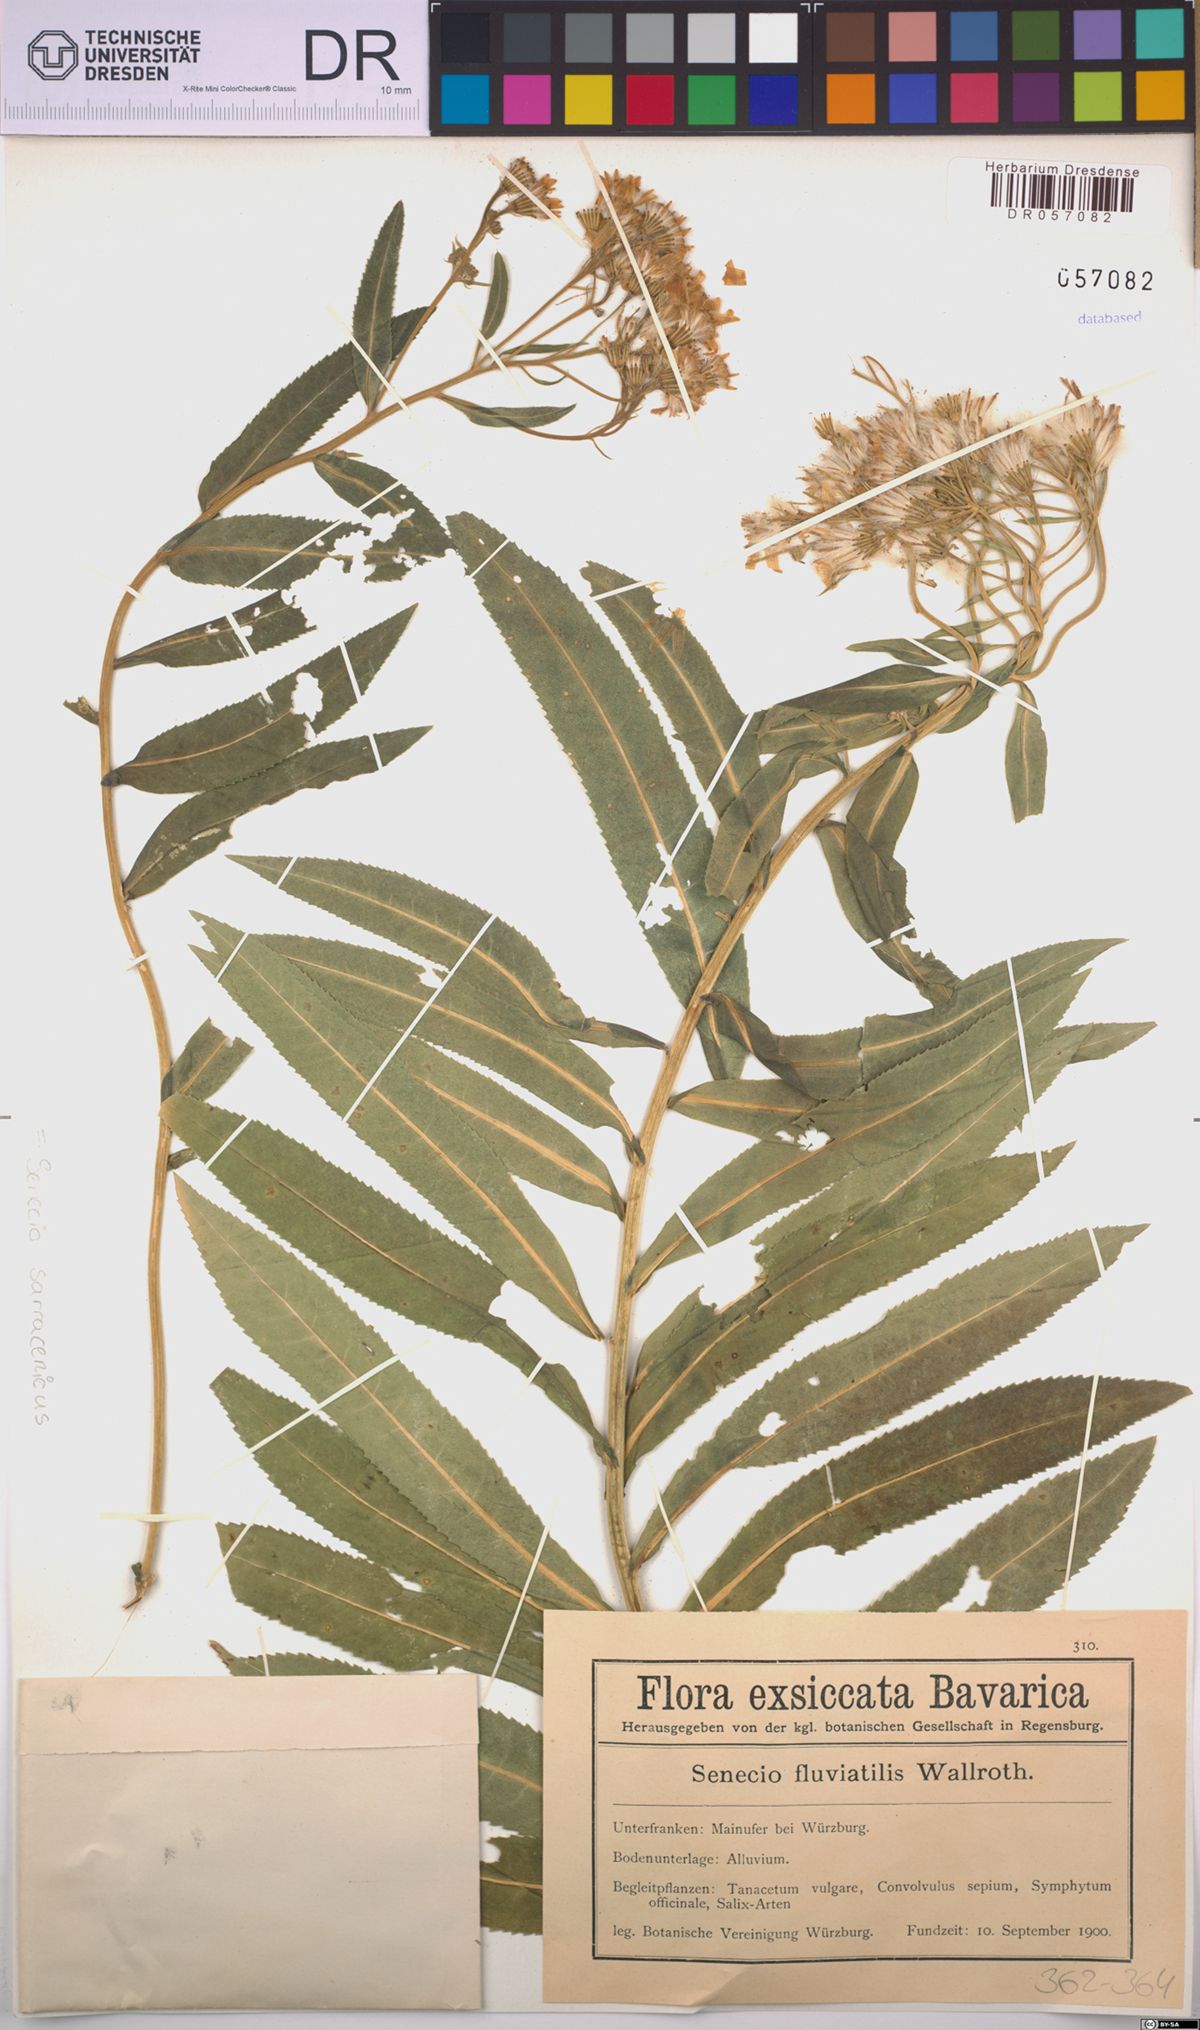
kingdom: Plantae
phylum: Tracheophyta
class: Magnoliopsida
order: Asterales
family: Asteraceae
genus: Senecio
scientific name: Senecio sarracenicus
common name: Broad-leaved ragwort
